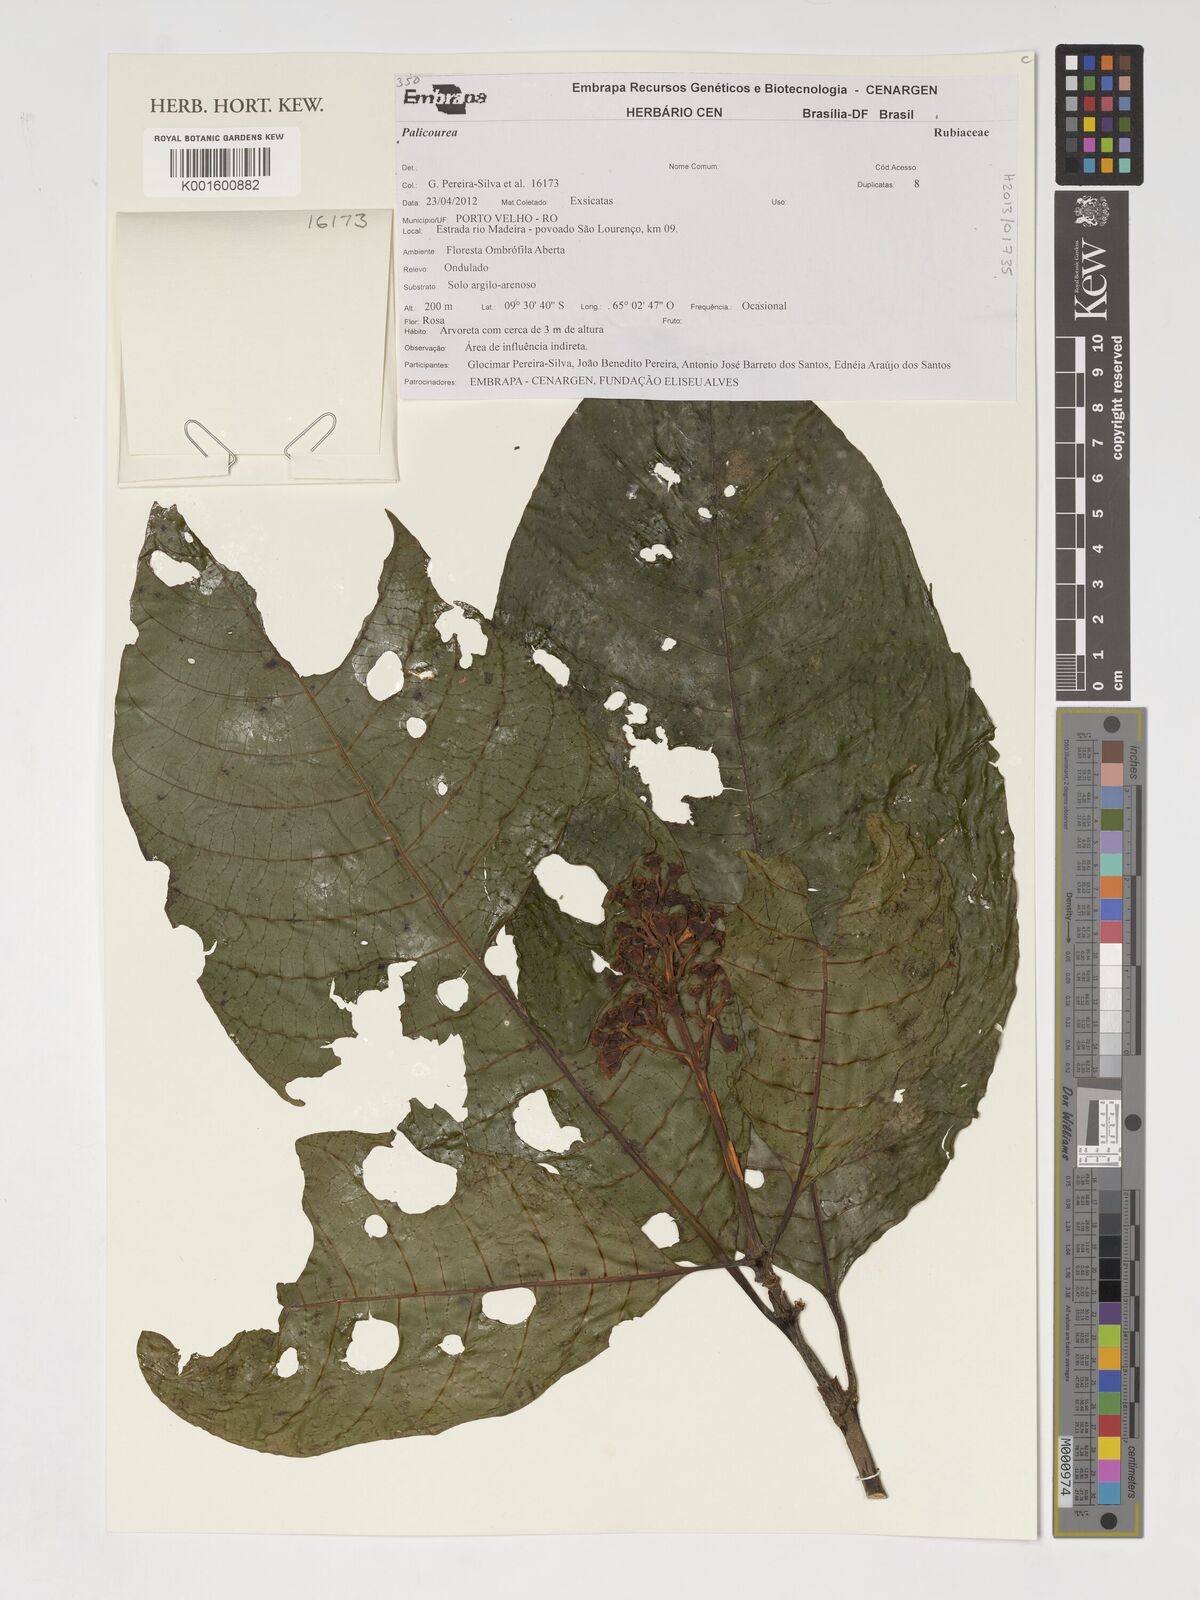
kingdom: Plantae
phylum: Tracheophyta
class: Magnoliopsida
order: Gentianales
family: Rubiaceae
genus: Palicourea
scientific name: Palicourea
